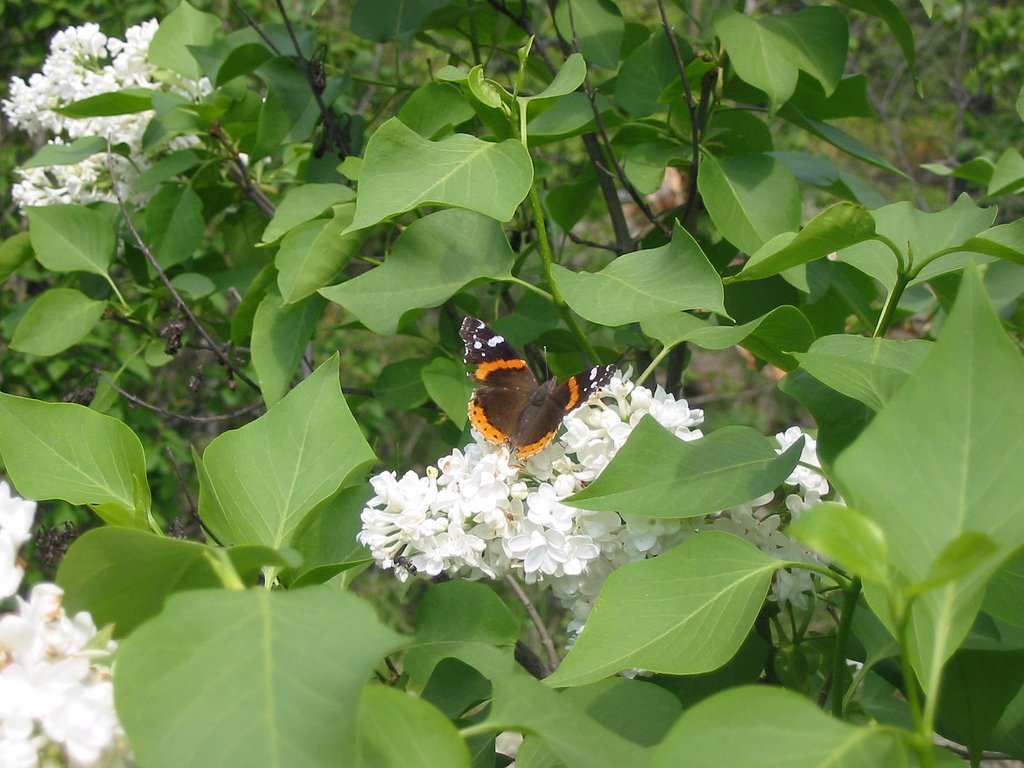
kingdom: Animalia
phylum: Arthropoda
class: Insecta
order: Lepidoptera
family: Nymphalidae
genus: Vanessa
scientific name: Vanessa atalanta
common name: Red Admiral
